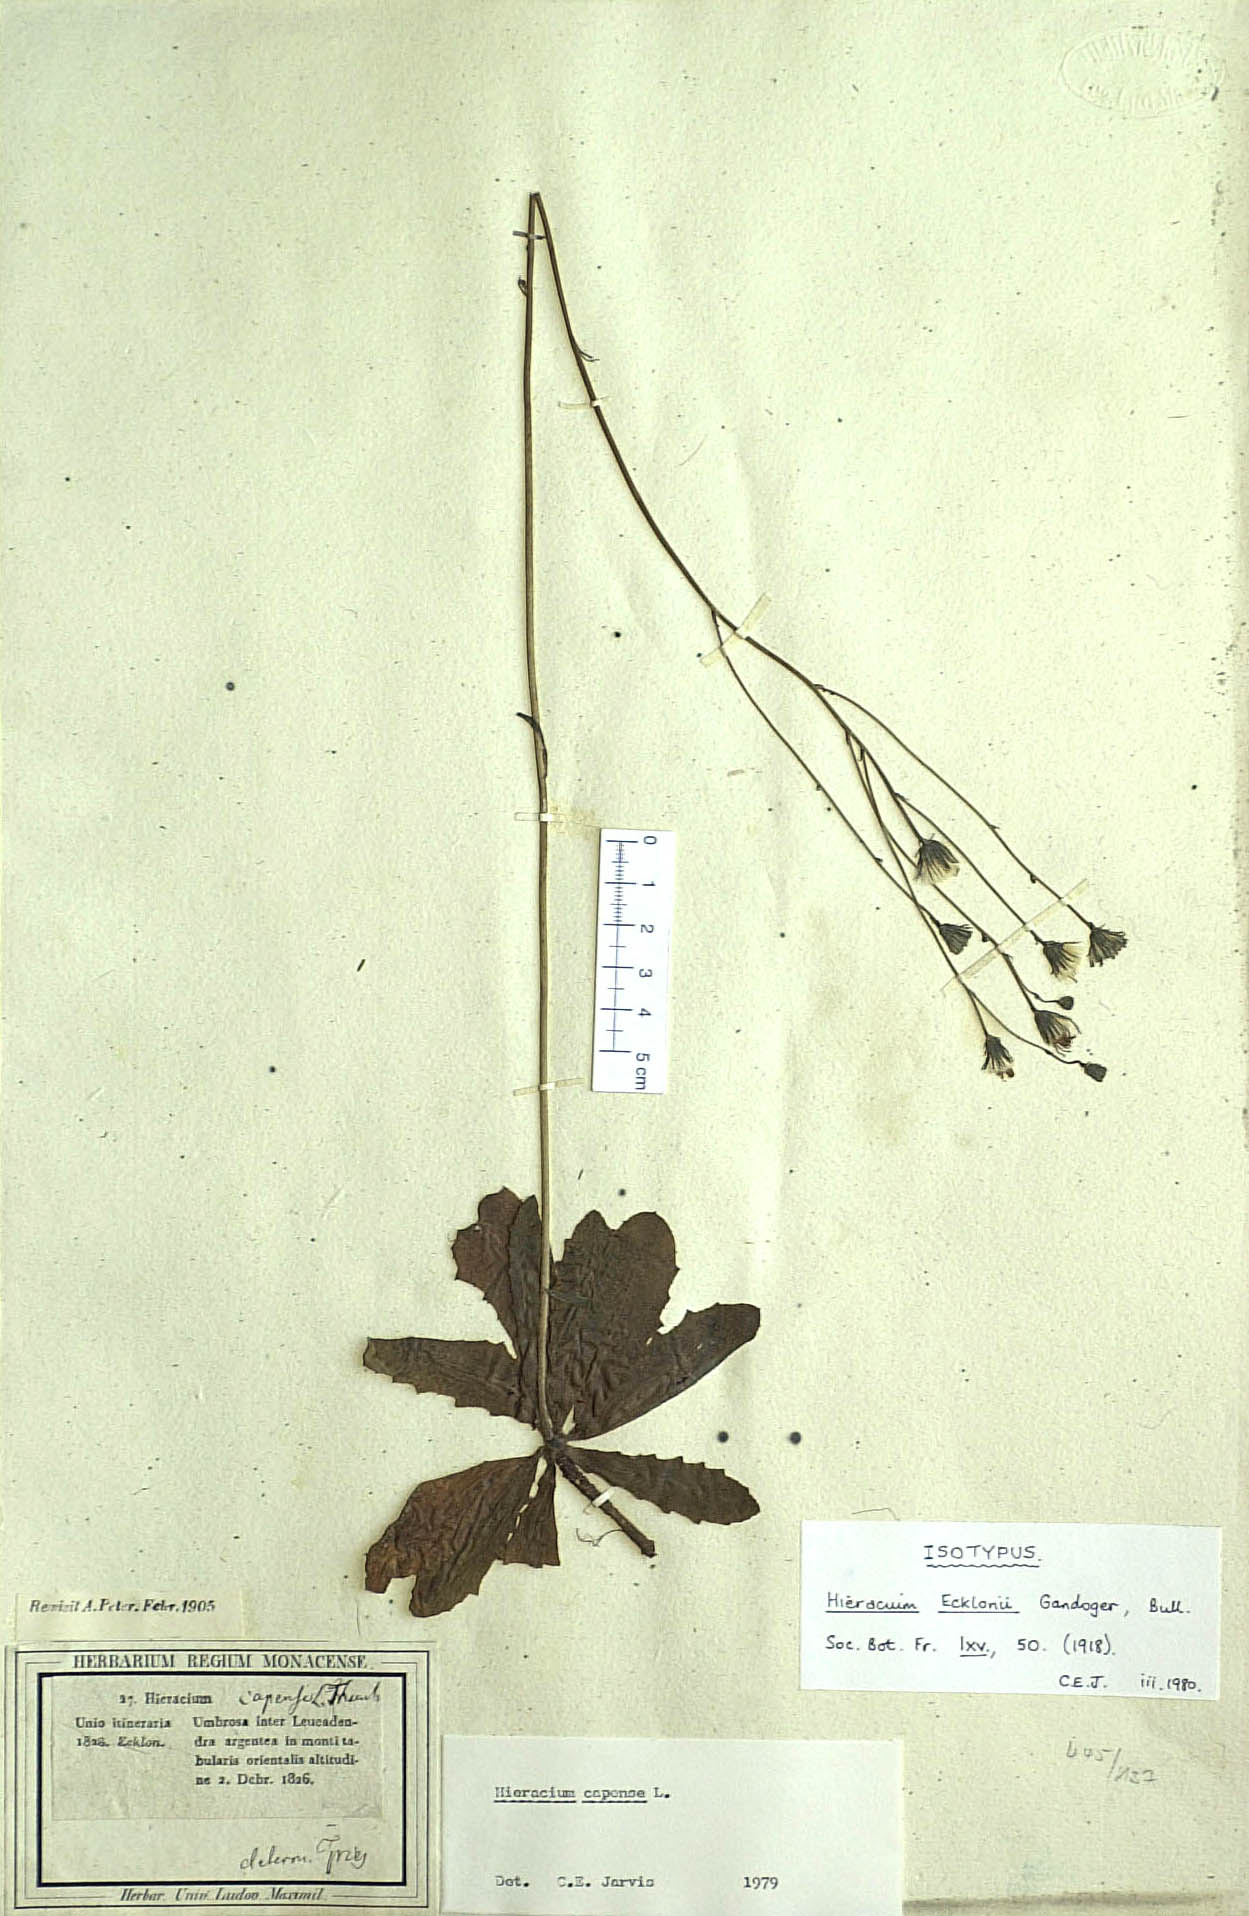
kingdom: Plantae
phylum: Tracheophyta
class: Magnoliopsida
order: Asterales
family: Asteraceae
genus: Tolpis
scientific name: Tolpis capensis
